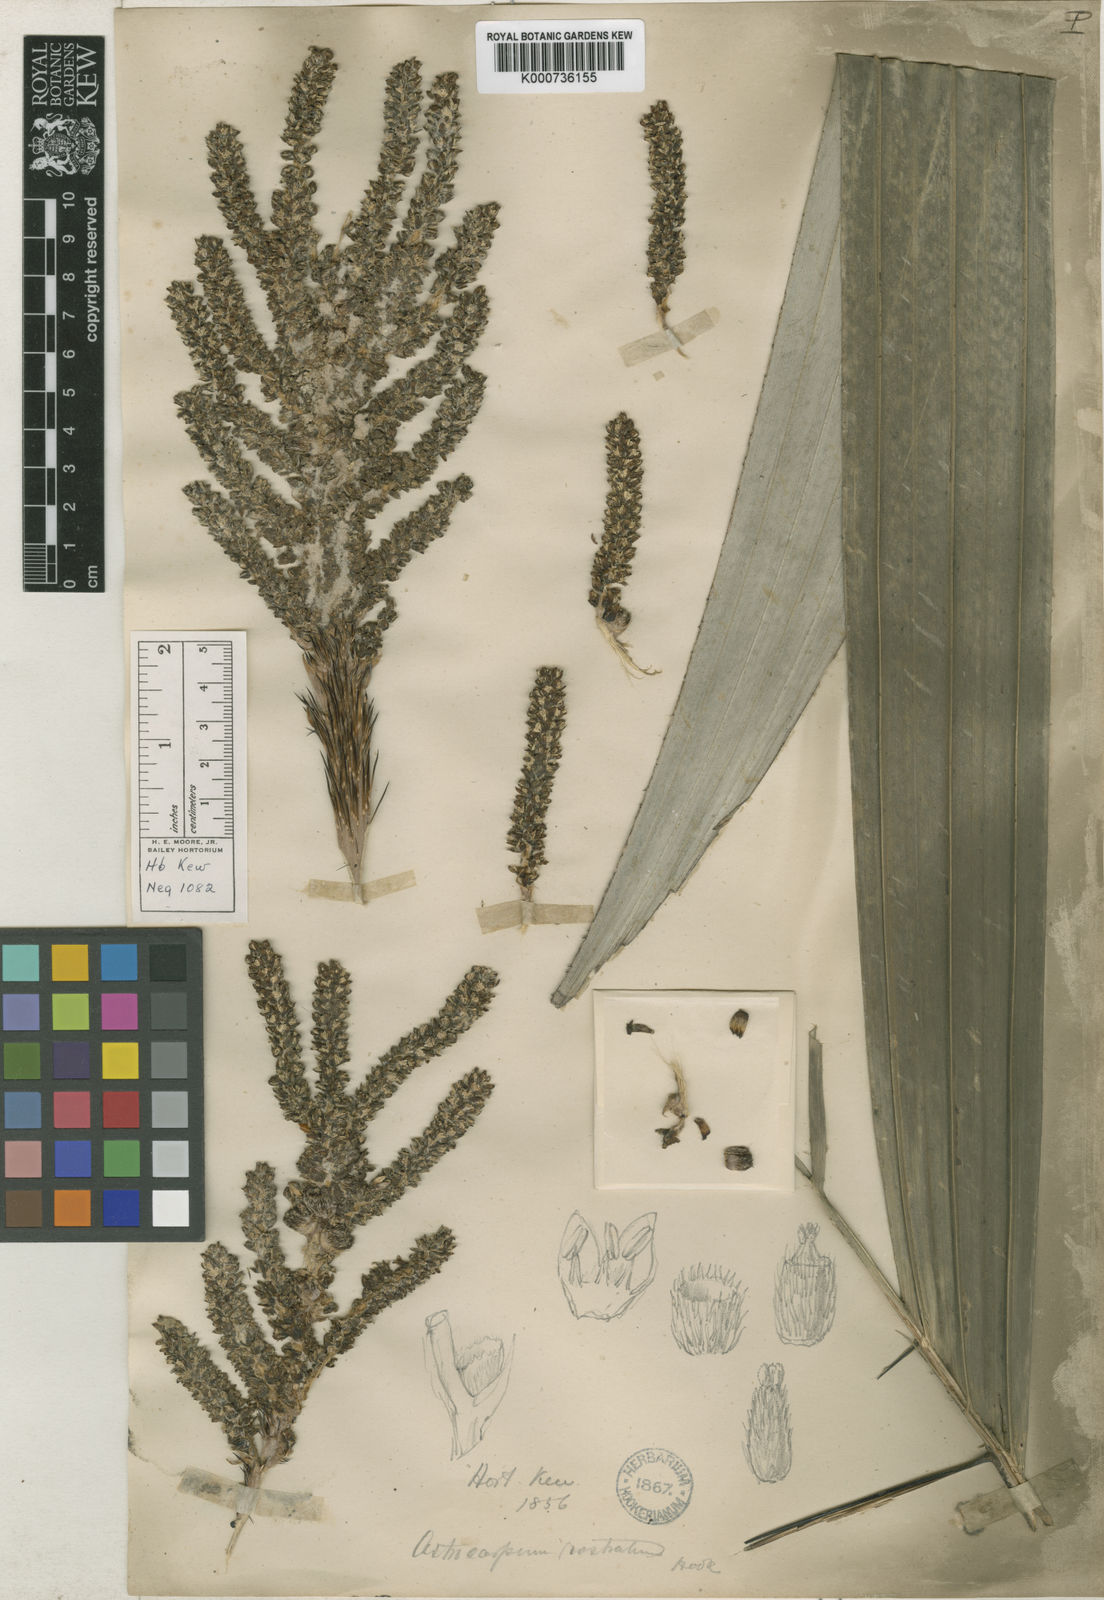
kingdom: Plantae
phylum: Tracheophyta
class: Liliopsida
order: Arecales
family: Arecaceae
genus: Astrocaryum
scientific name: Astrocaryum
